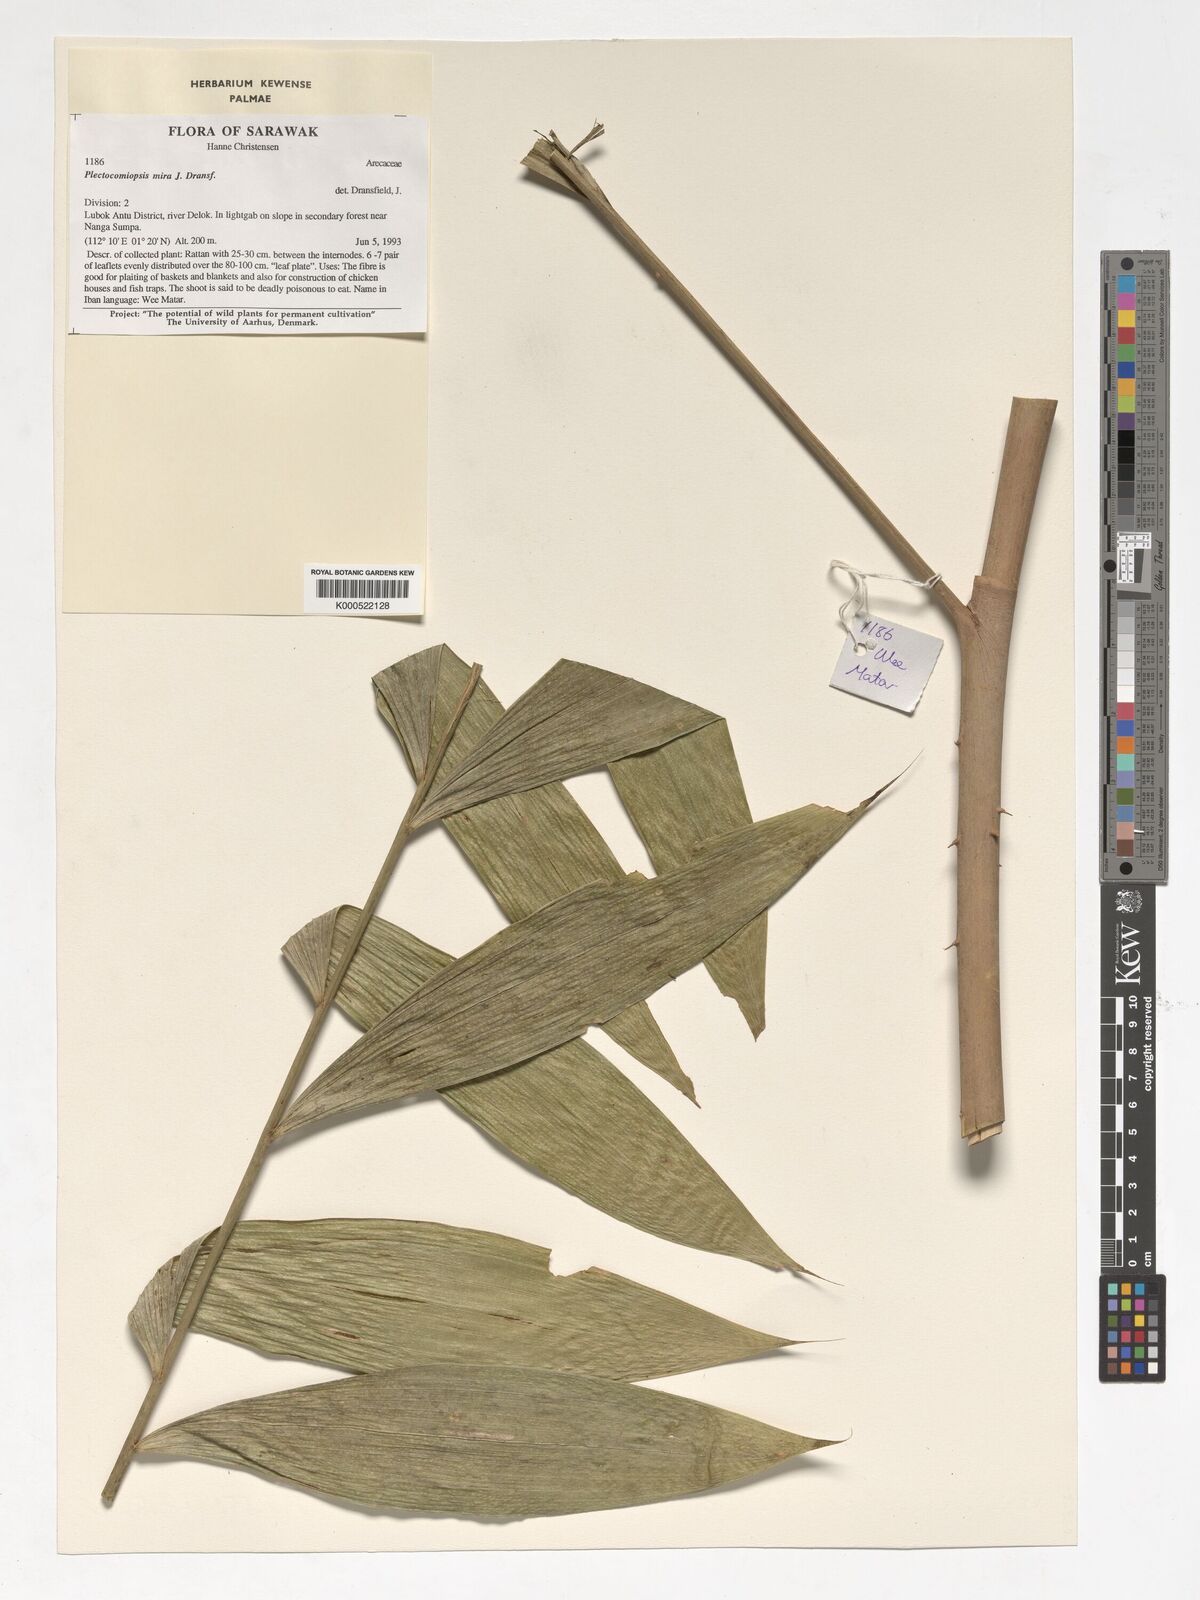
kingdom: Plantae
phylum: Tracheophyta
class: Liliopsida
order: Arecales
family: Arecaceae
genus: Plectocomiopsis
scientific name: Plectocomiopsis mira
